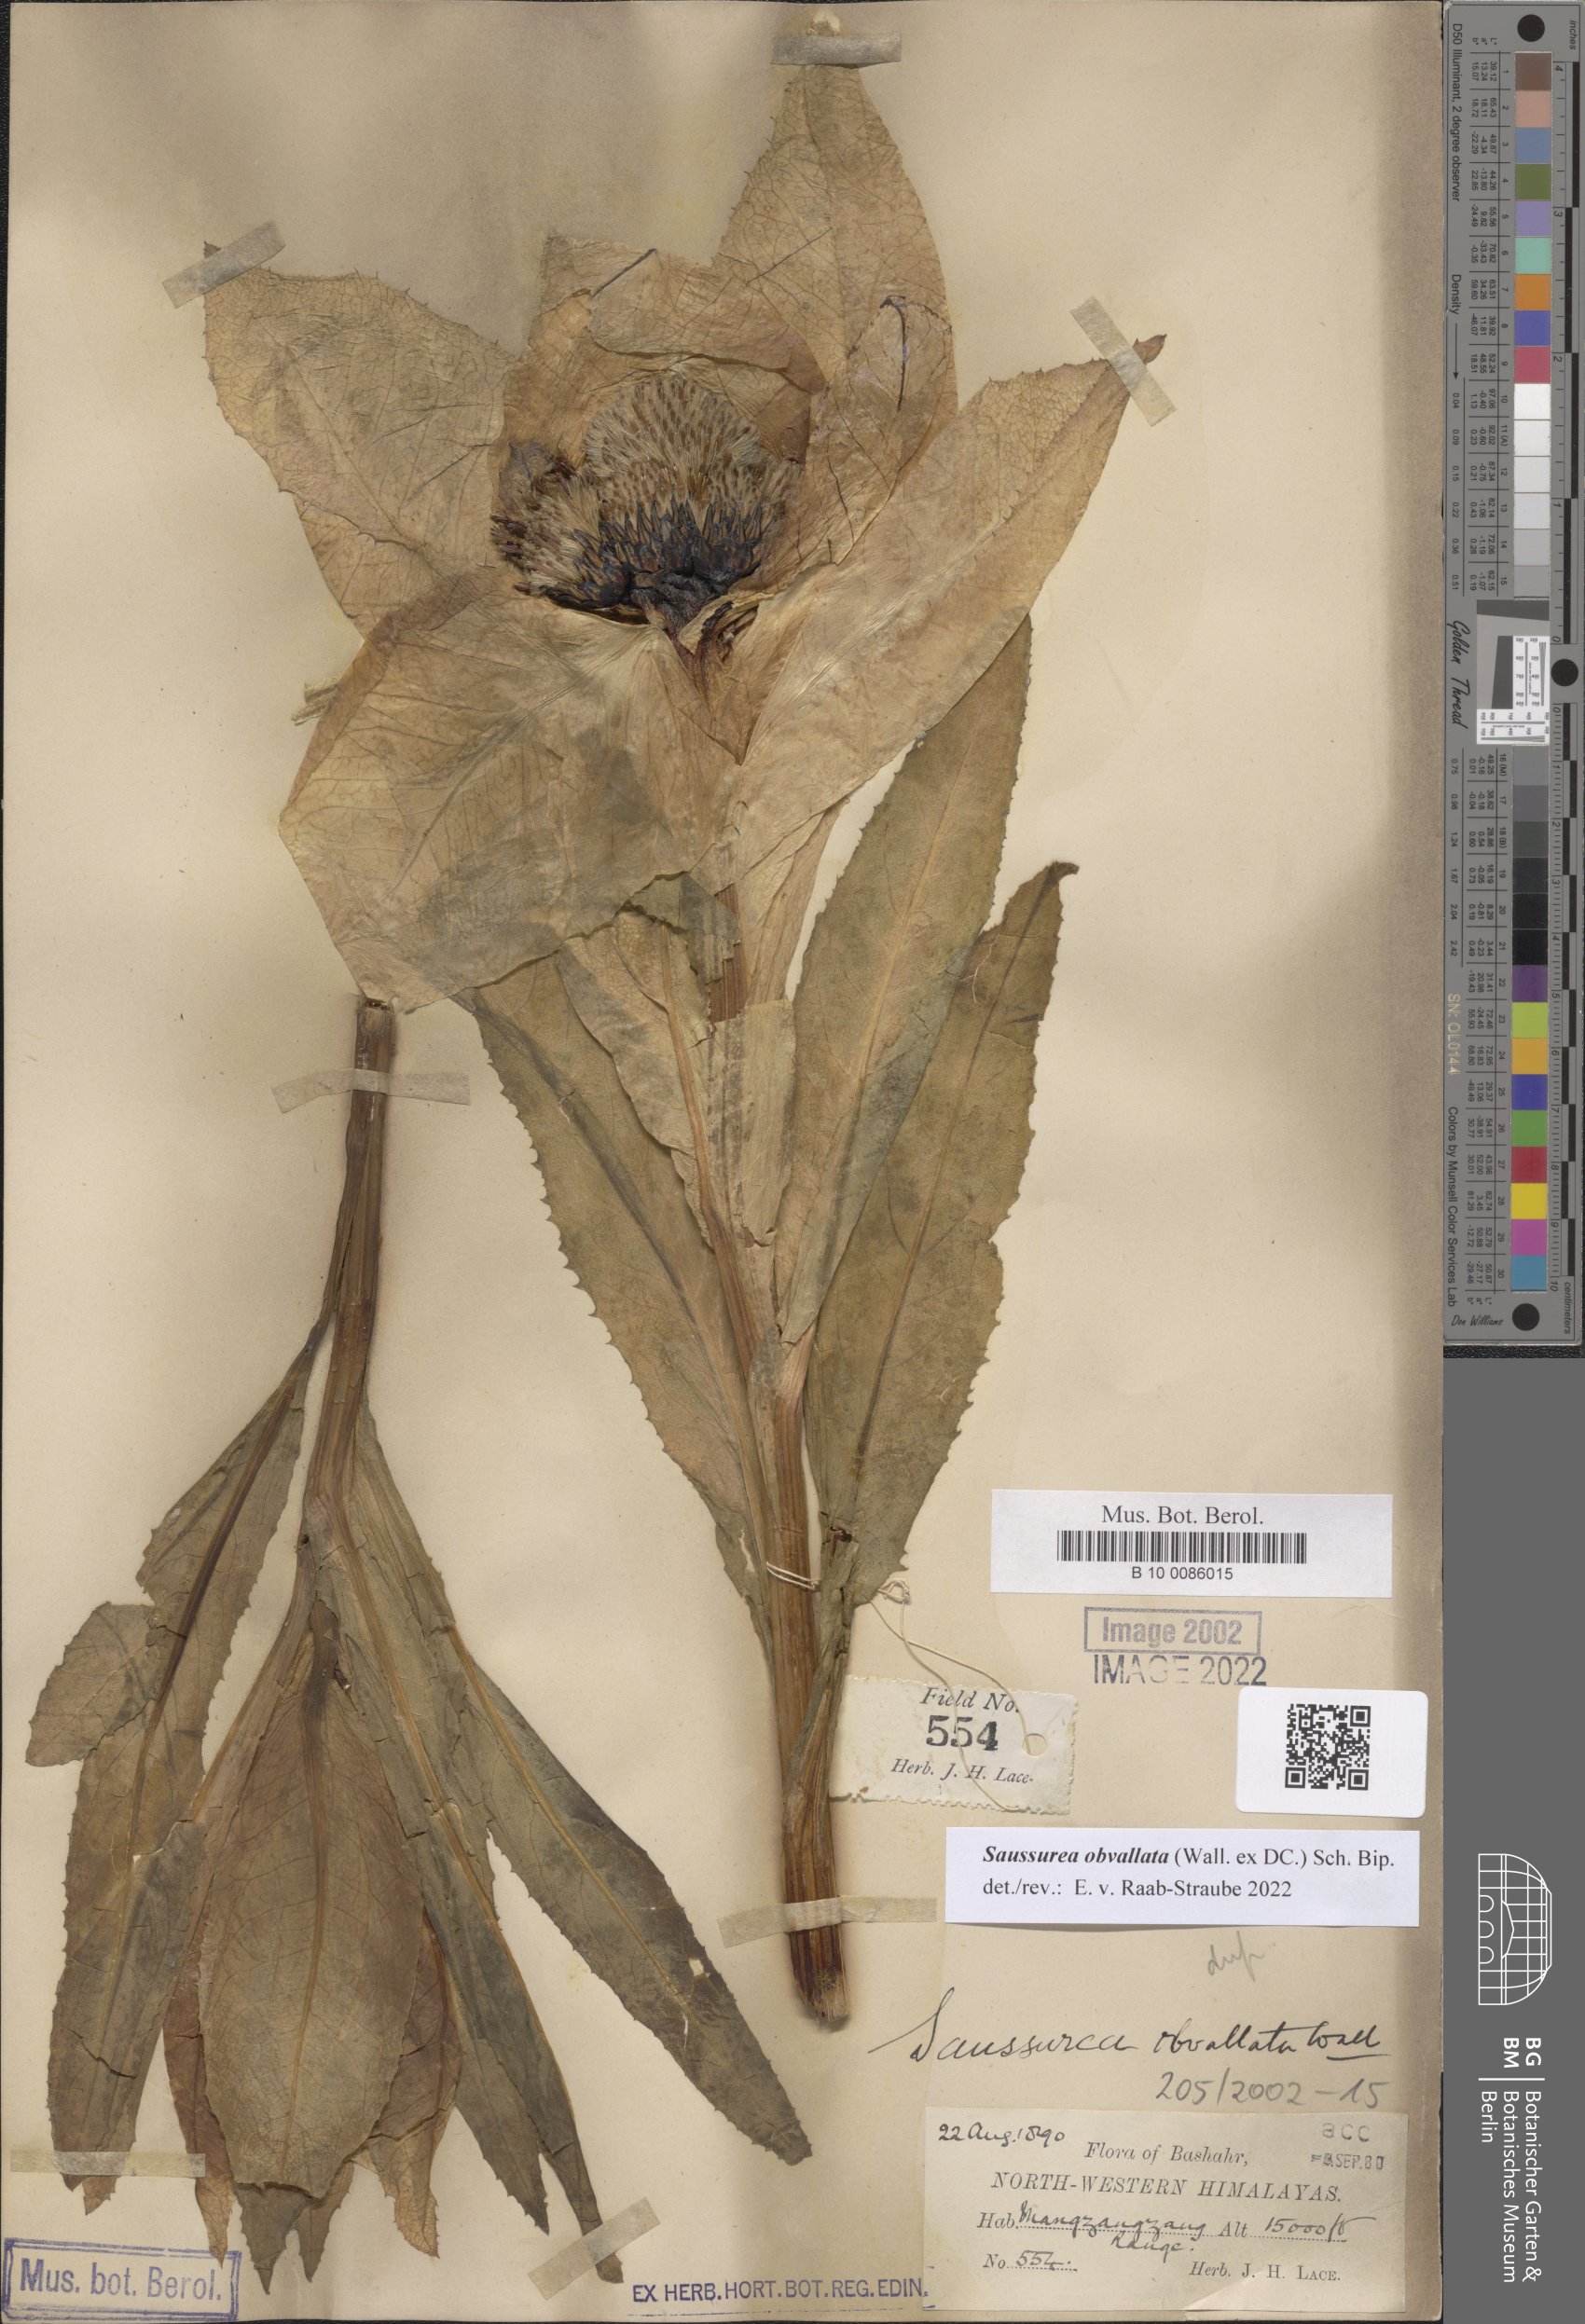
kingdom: Plantae
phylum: Tracheophyta
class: Magnoliopsida
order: Asterales
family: Asteraceae
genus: Saussurea
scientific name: Saussurea obvallata
